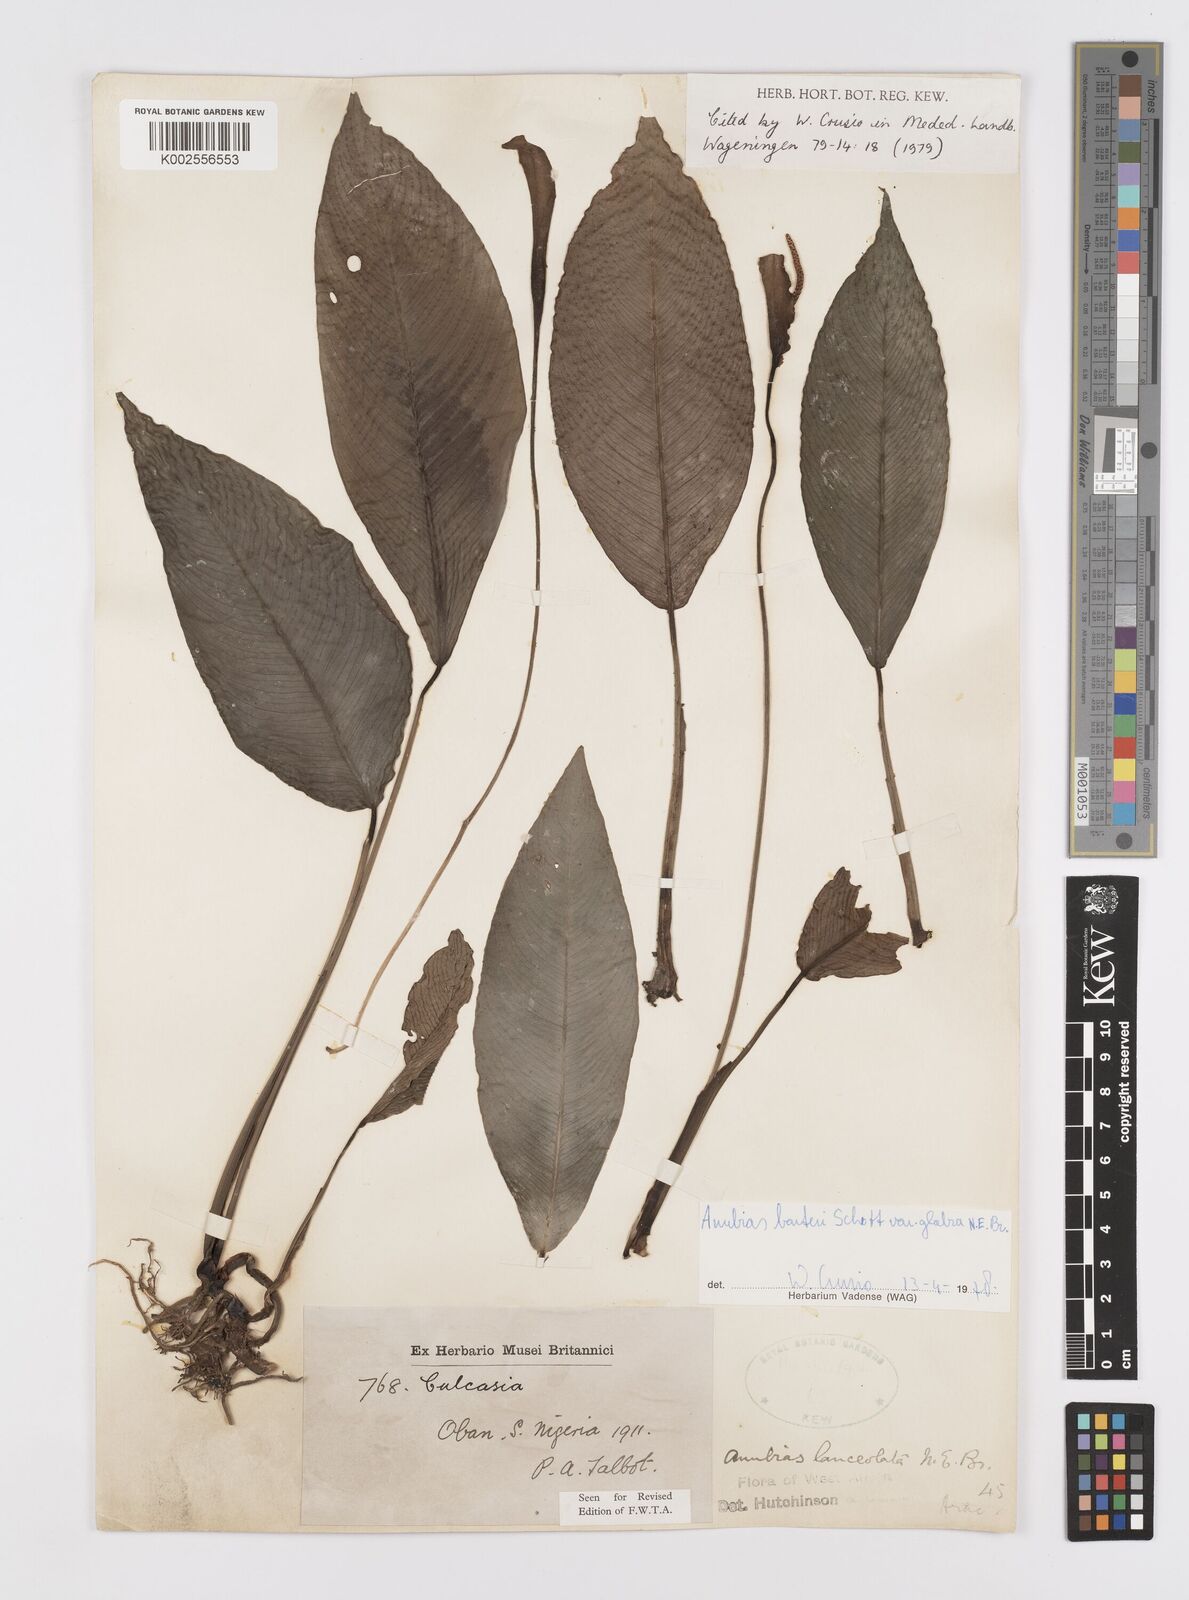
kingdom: Plantae
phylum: Tracheophyta
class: Liliopsida
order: Alismatales
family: Araceae
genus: Anubias
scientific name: Anubias barteri
